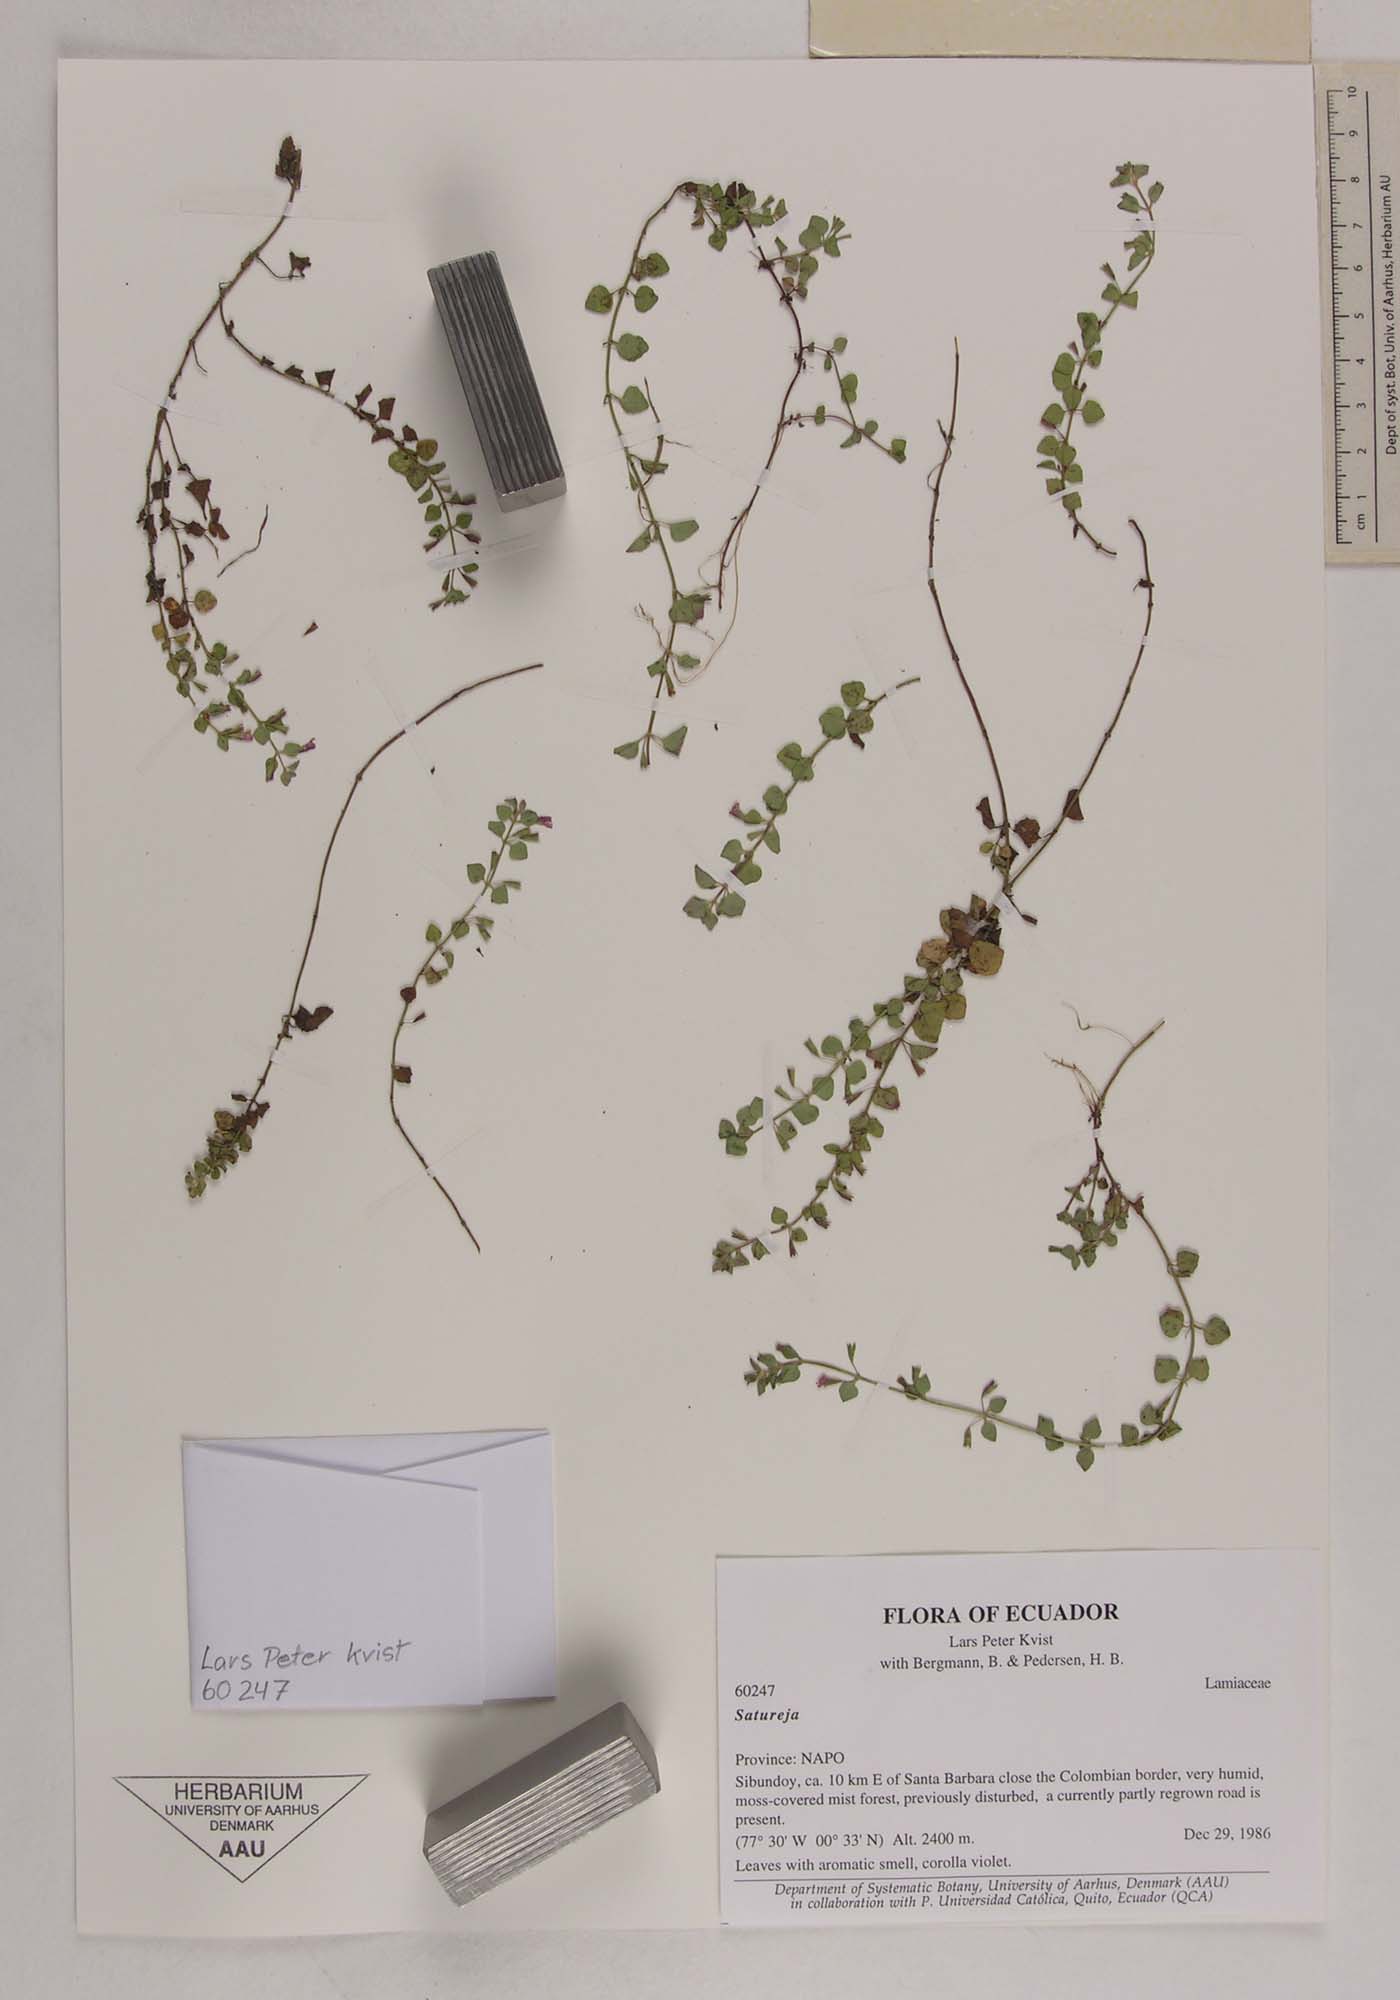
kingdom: Plantae
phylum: Tracheophyta
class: Magnoliopsida
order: Lamiales
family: Lamiaceae
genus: Satureja
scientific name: Satureja
